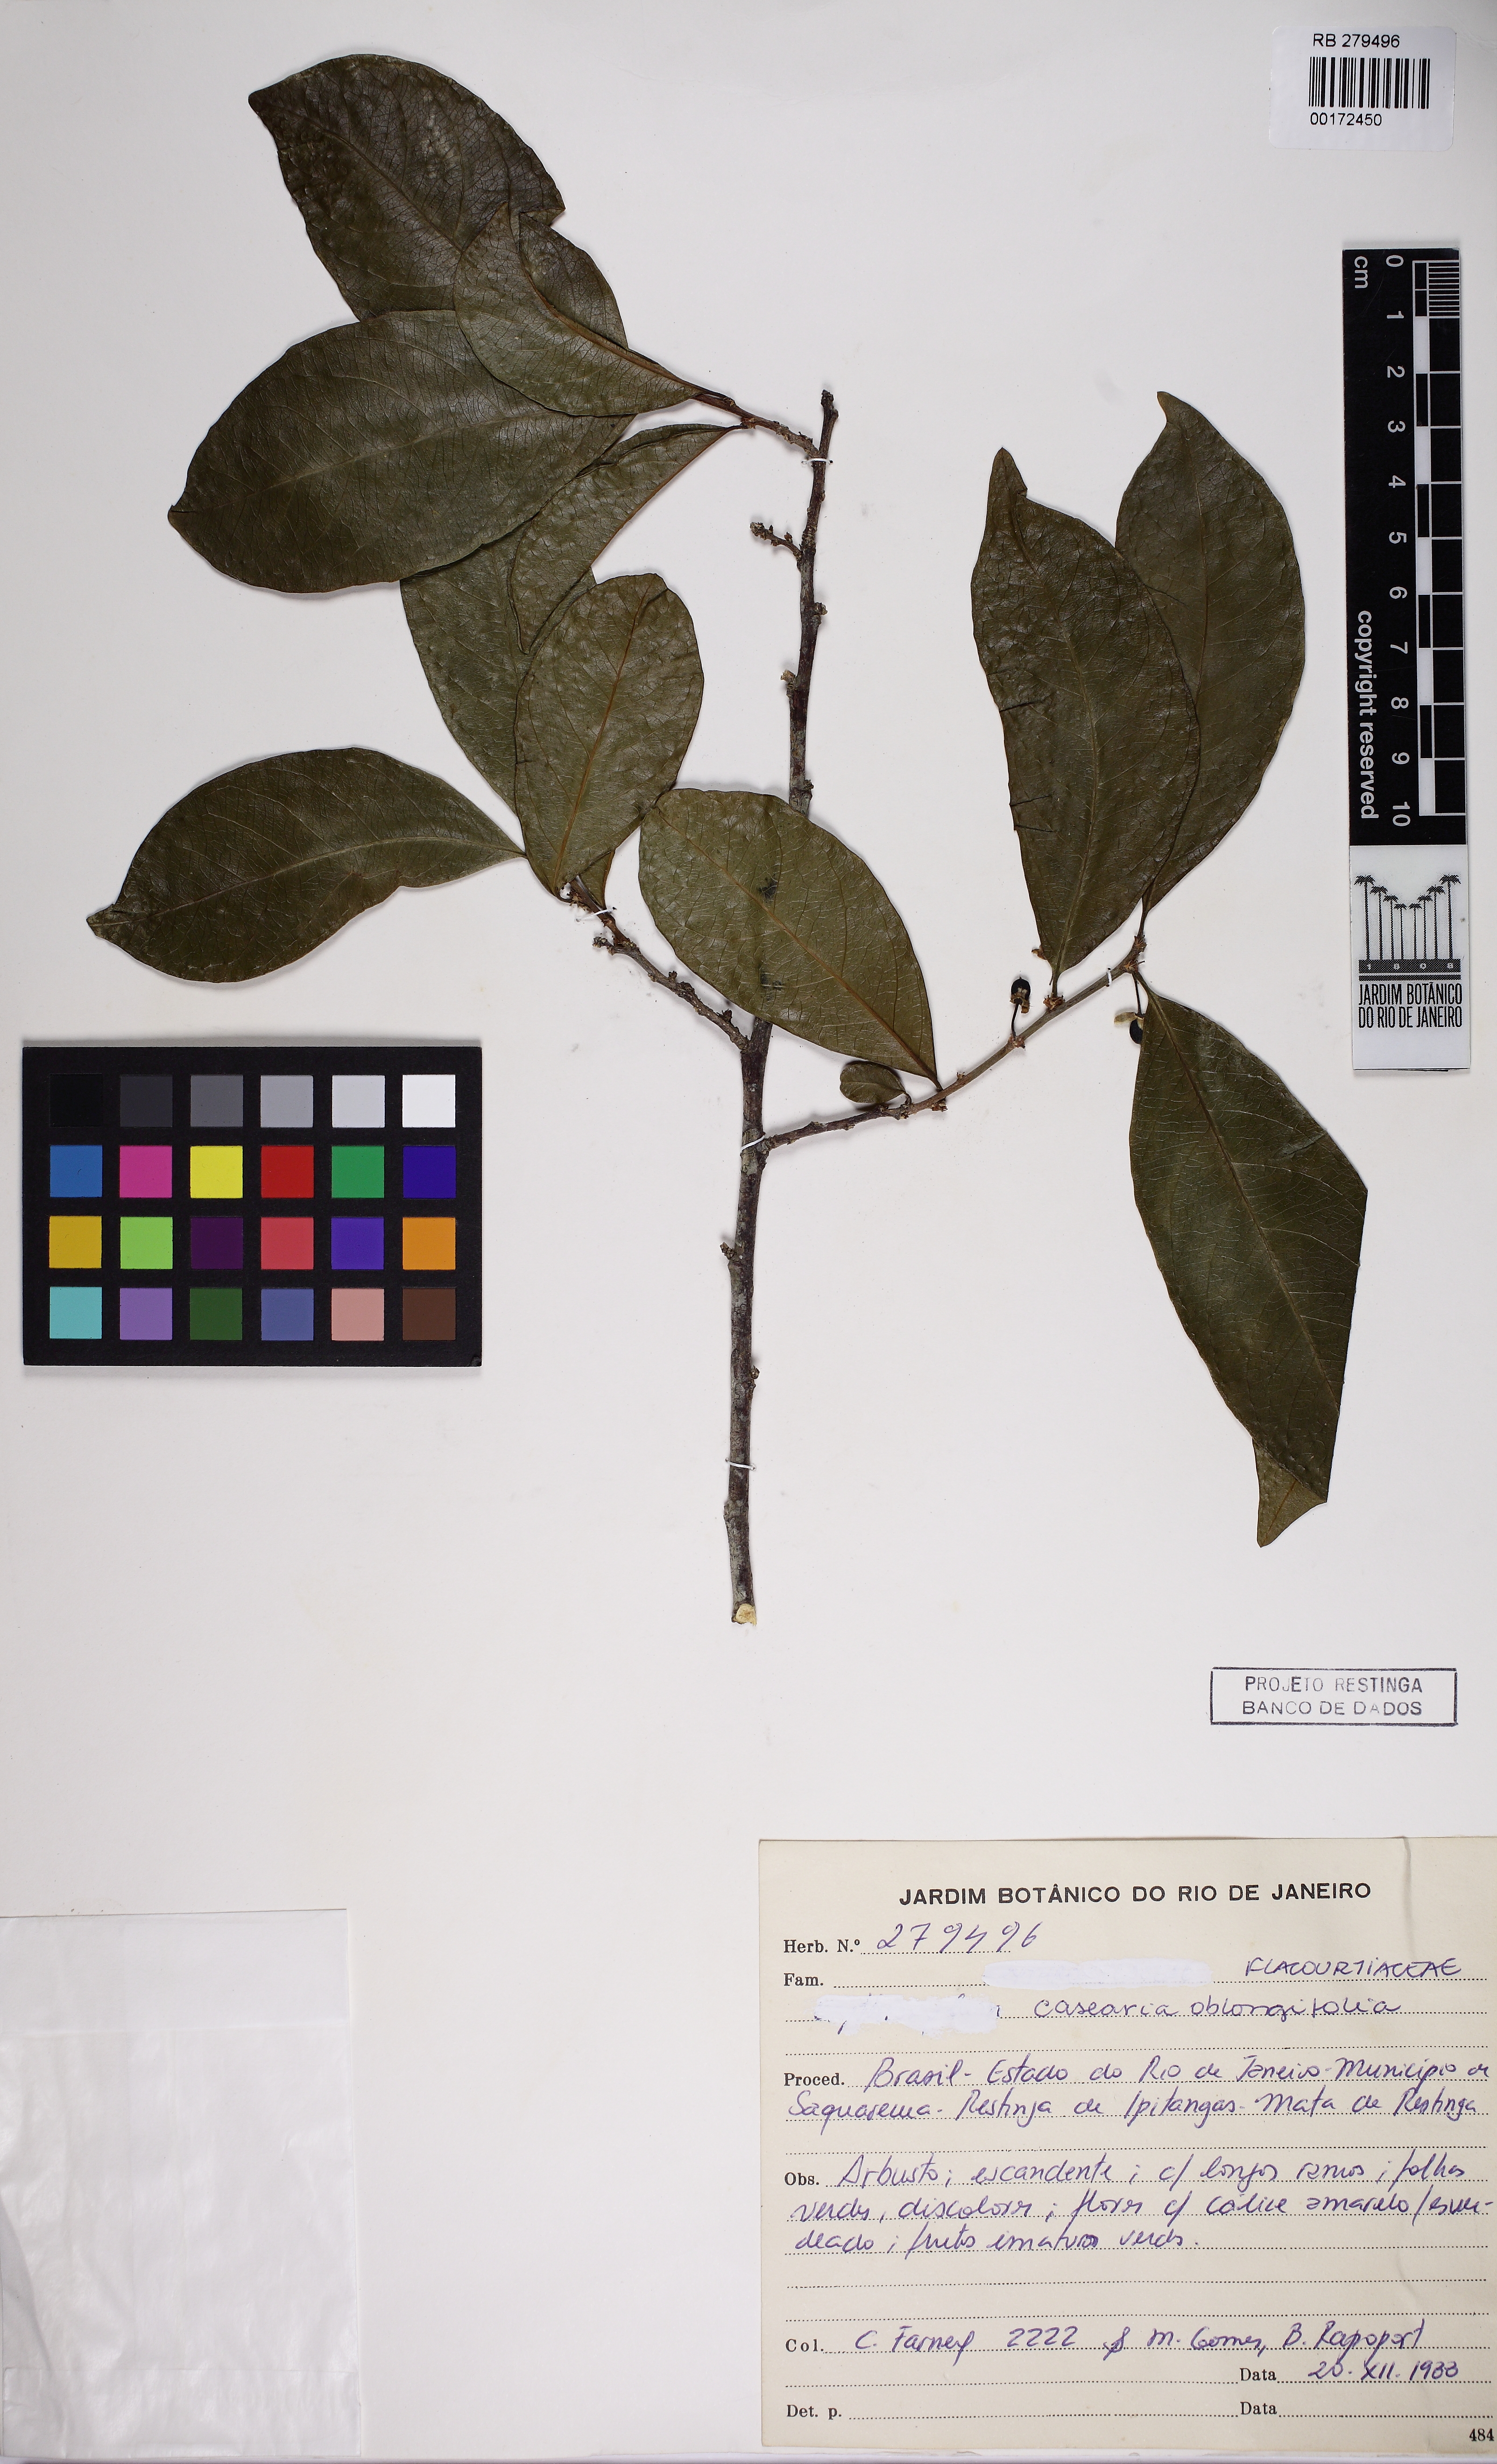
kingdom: Plantae
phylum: Tracheophyta
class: Magnoliopsida
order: Malpighiales
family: Salicaceae
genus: Casearia
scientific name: Casearia sylvestris
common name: Wild sage
